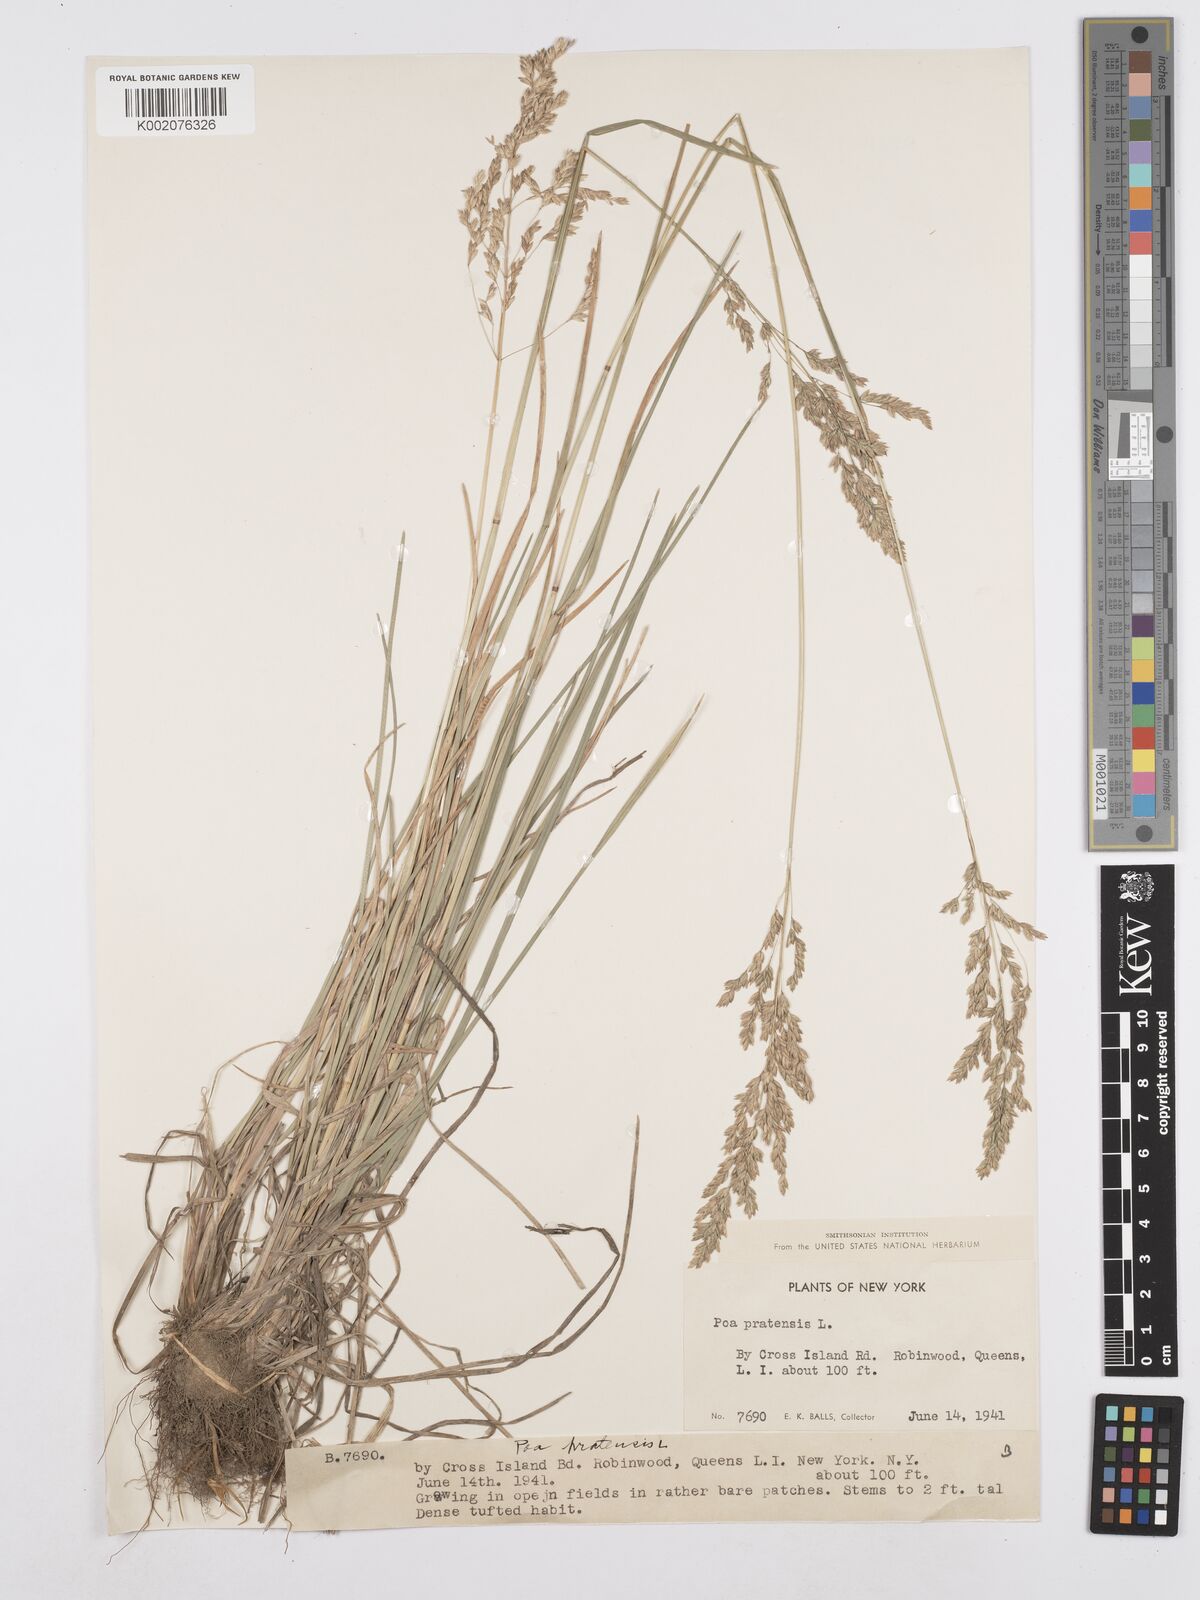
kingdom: Plantae
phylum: Tracheophyta
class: Liliopsida
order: Poales
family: Poaceae
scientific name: Poaceae
